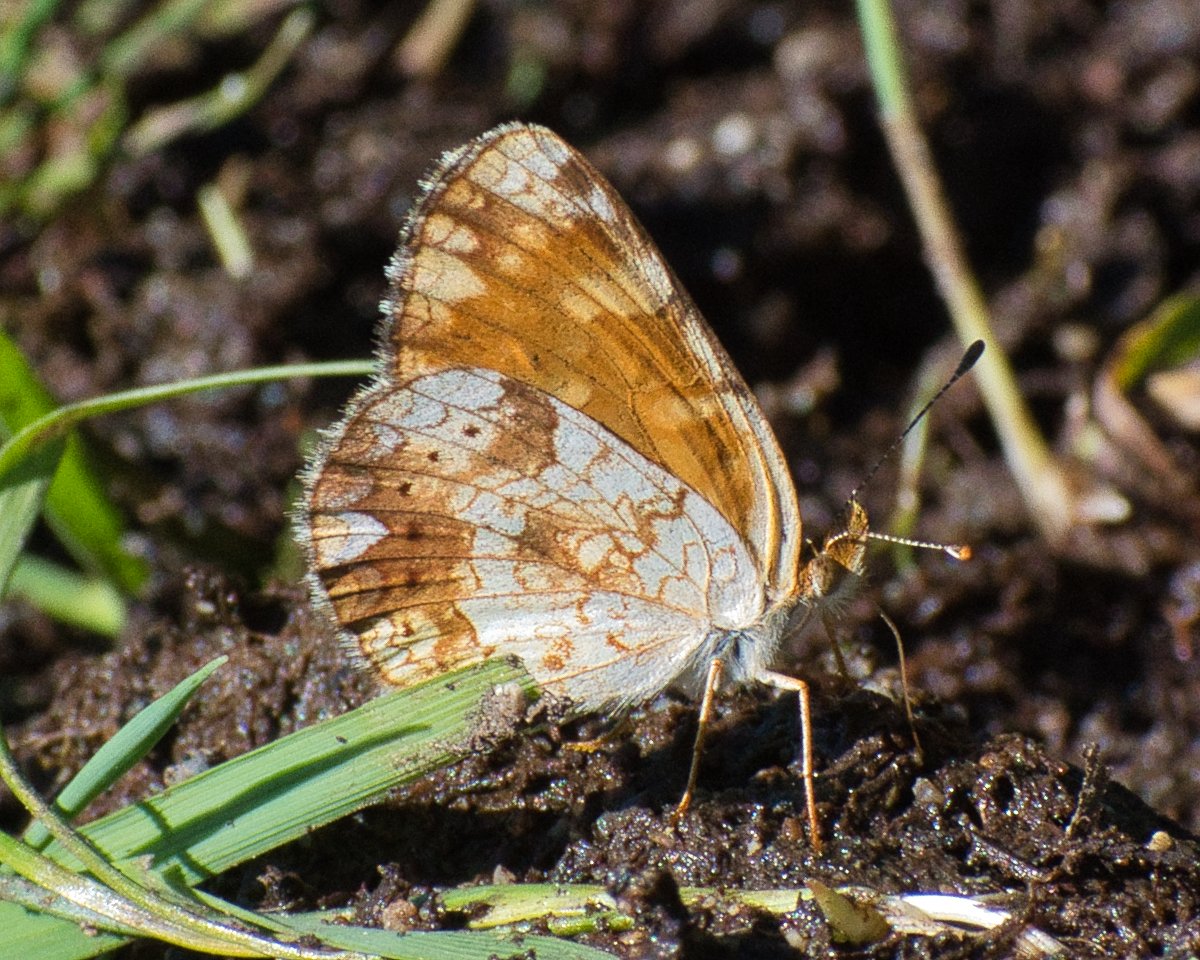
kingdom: Animalia
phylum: Arthropoda
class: Insecta
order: Lepidoptera
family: Nymphalidae
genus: Phyciodes
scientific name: Phyciodes tharos
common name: Field Crescent
